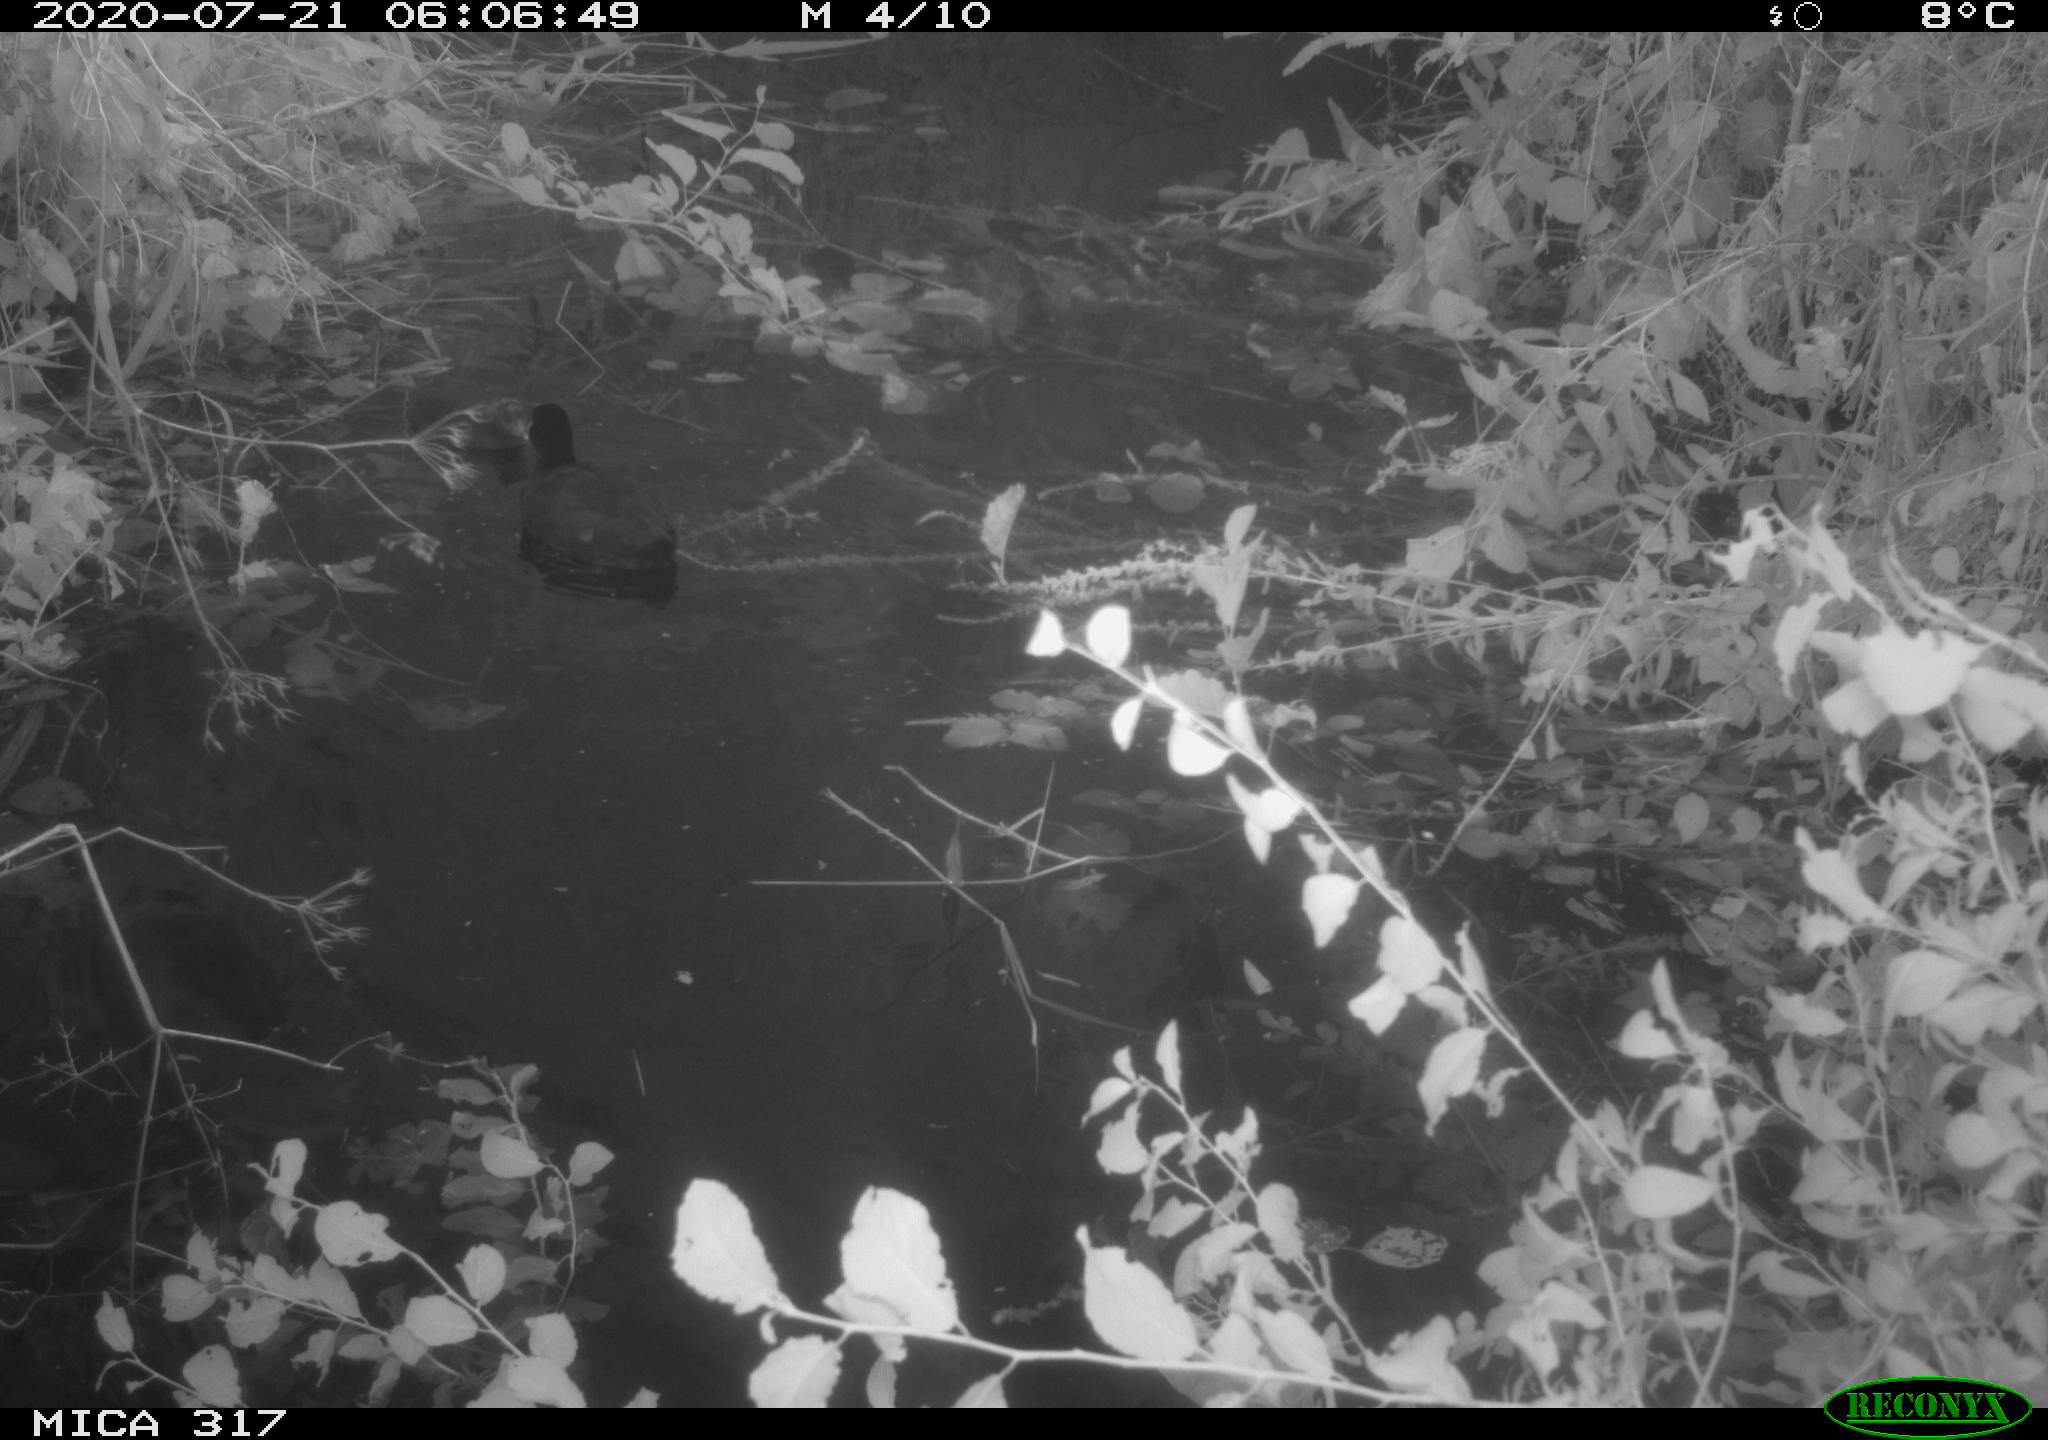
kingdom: Animalia
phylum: Chordata
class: Aves
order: Gruiformes
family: Rallidae
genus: Fulica
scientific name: Fulica atra
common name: Eurasian coot
